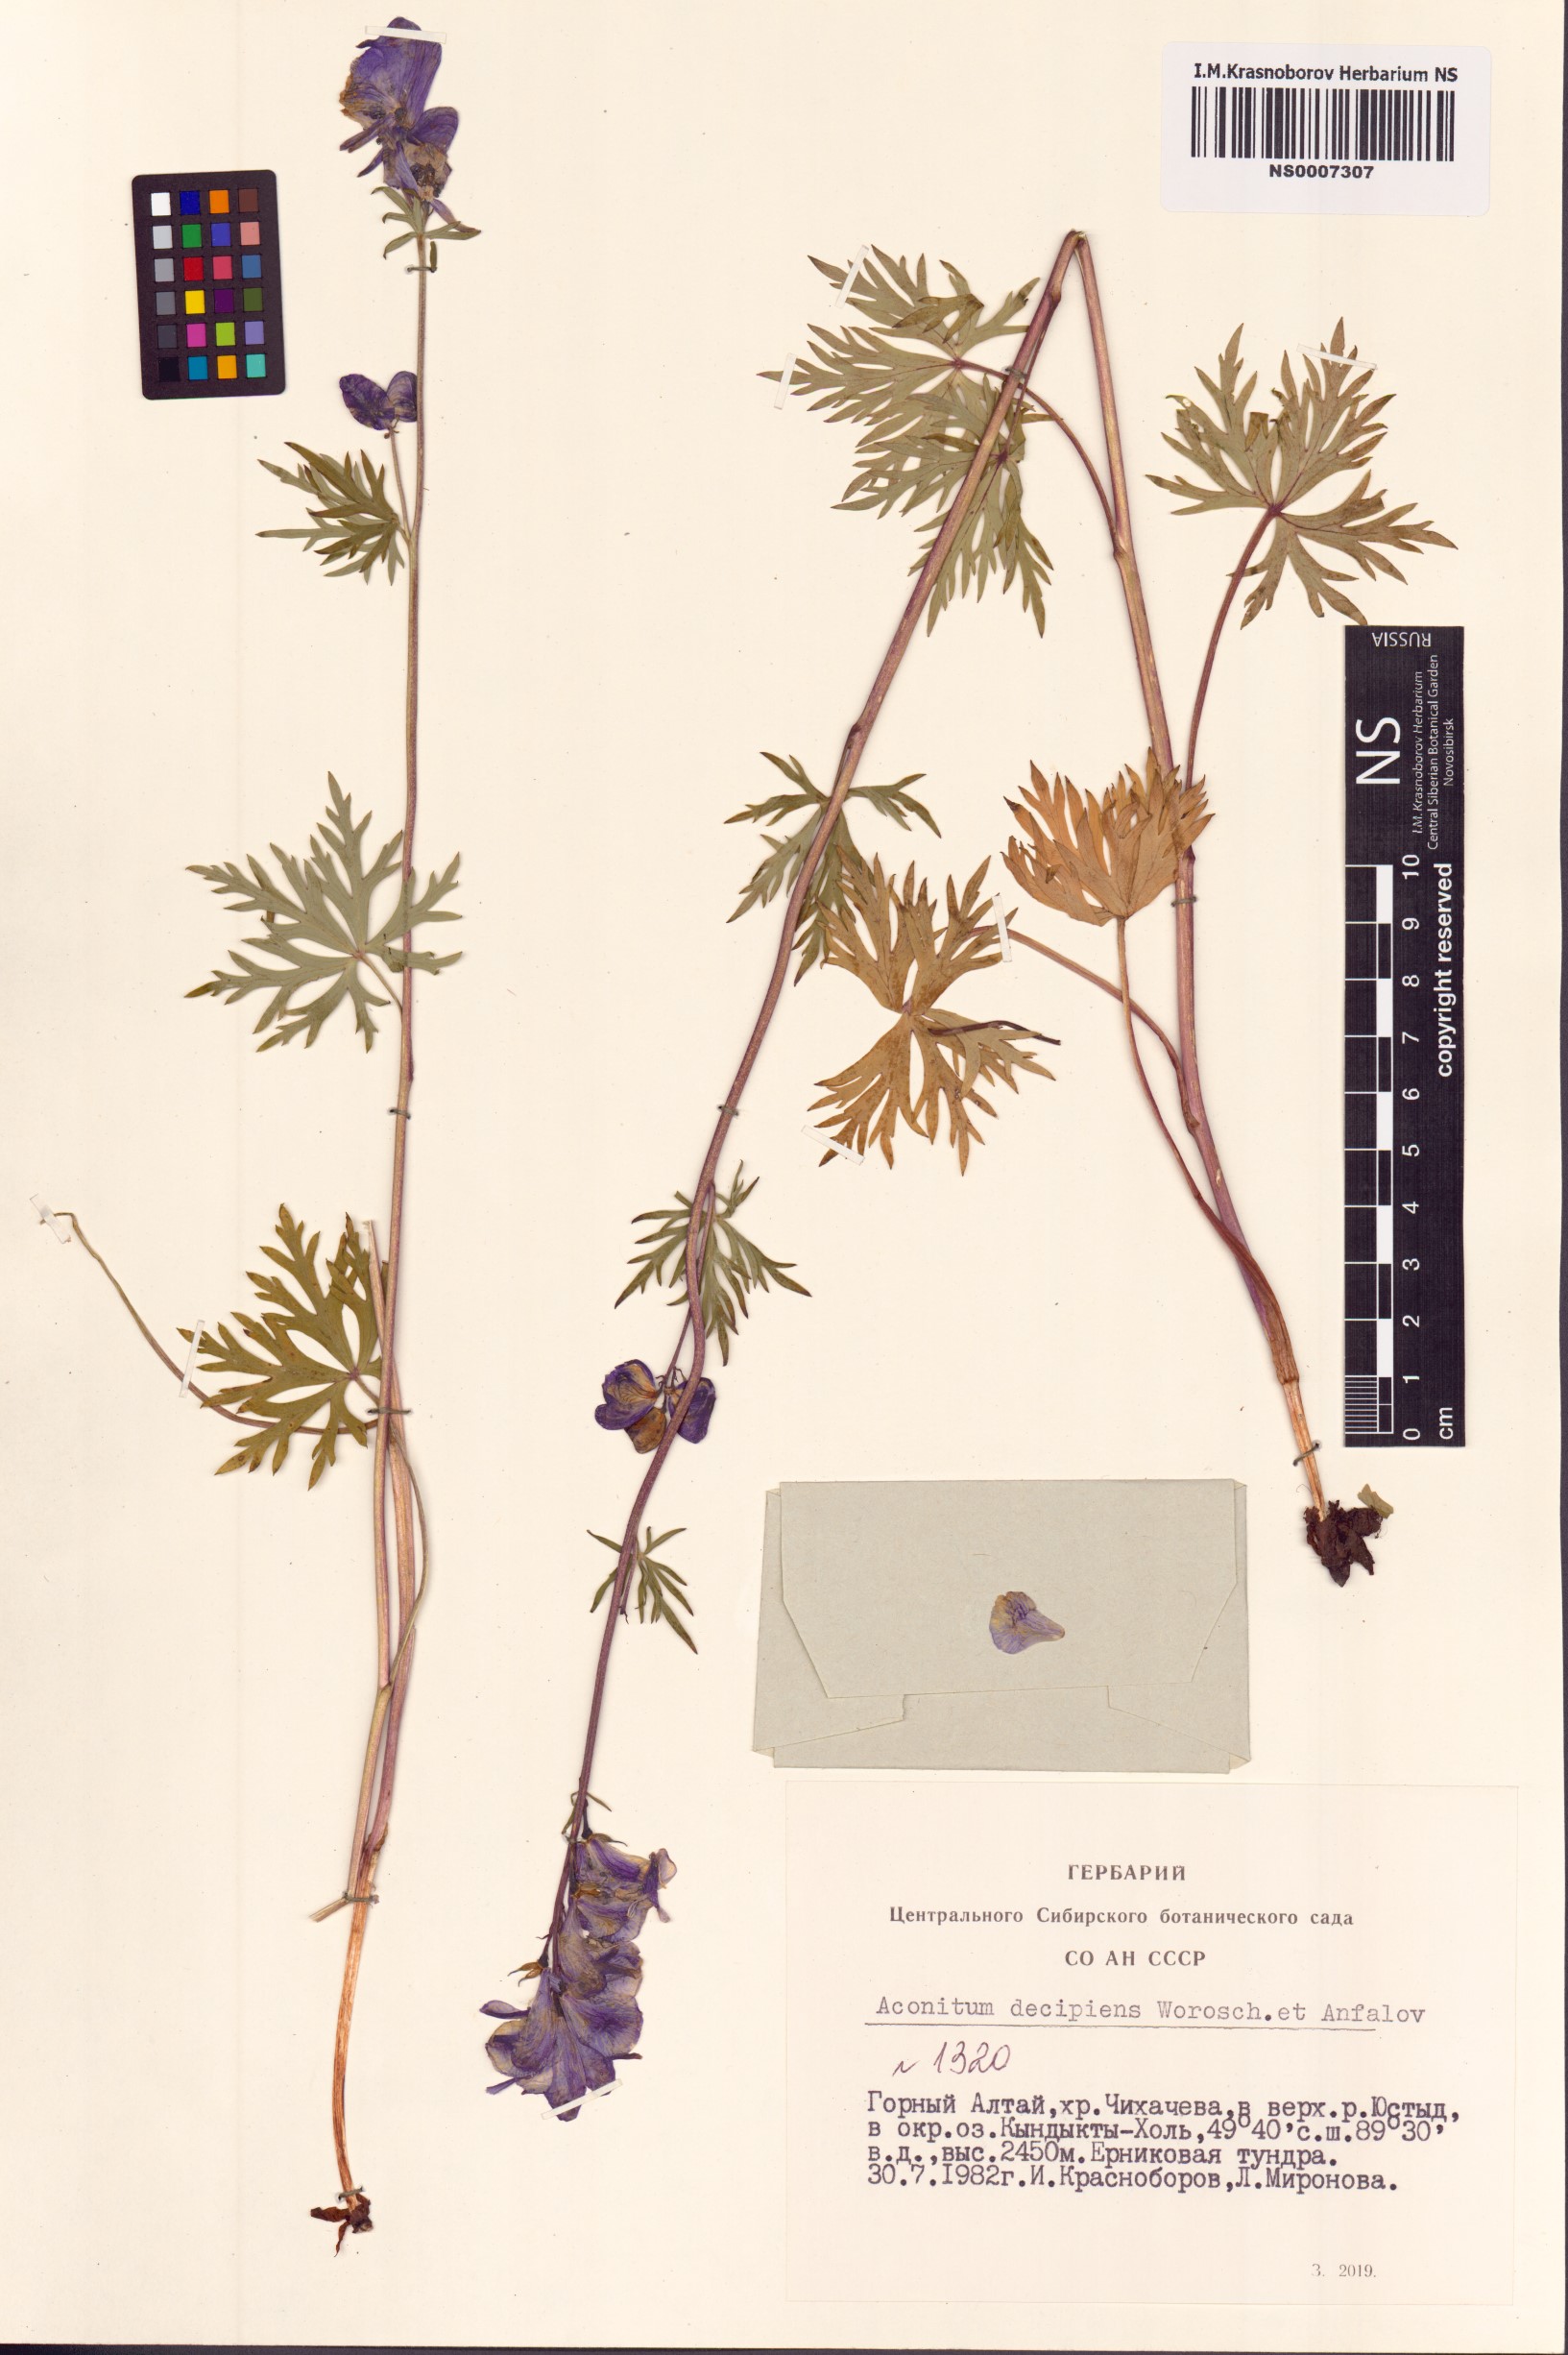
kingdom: Plantae
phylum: Tracheophyta
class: Magnoliopsida
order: Ranunculales
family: Ranunculaceae
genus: Aconitum
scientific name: Aconitum decipiens
